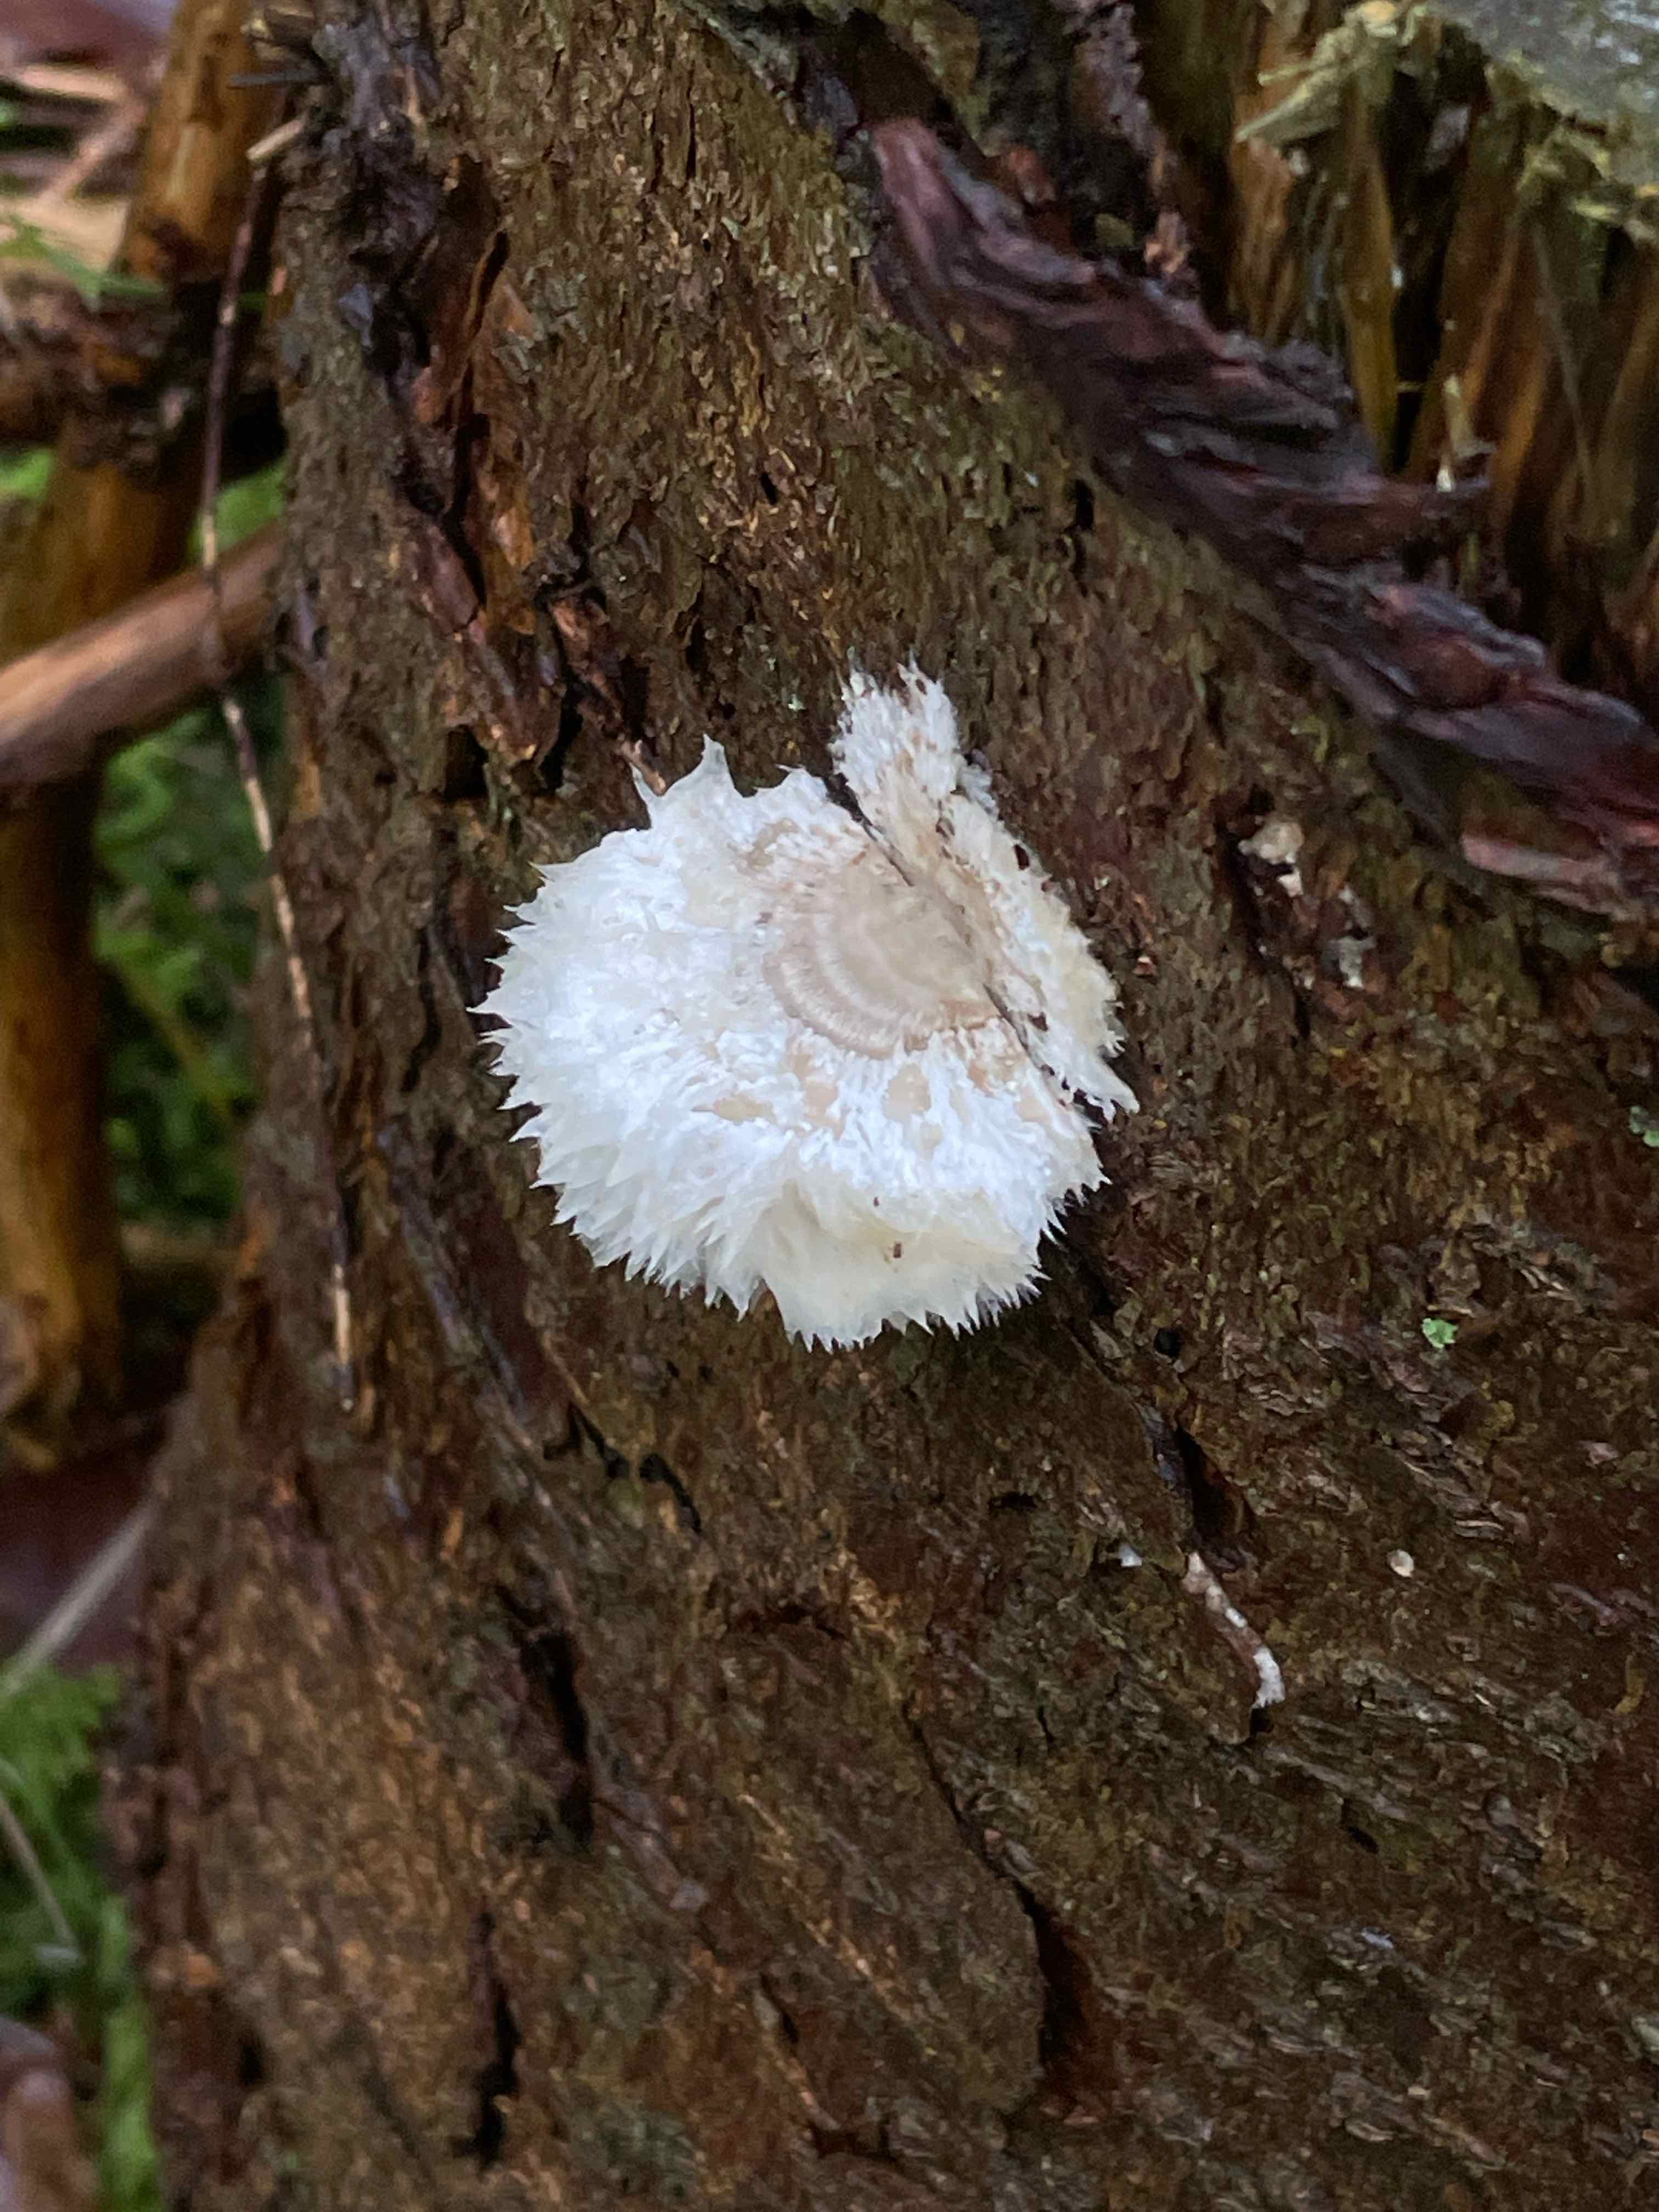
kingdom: Fungi
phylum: Basidiomycota
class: Agaricomycetes
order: Polyporales
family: Dacryobolaceae
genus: Postia
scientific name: Postia ptychogaster
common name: støvende kødporesvamp
